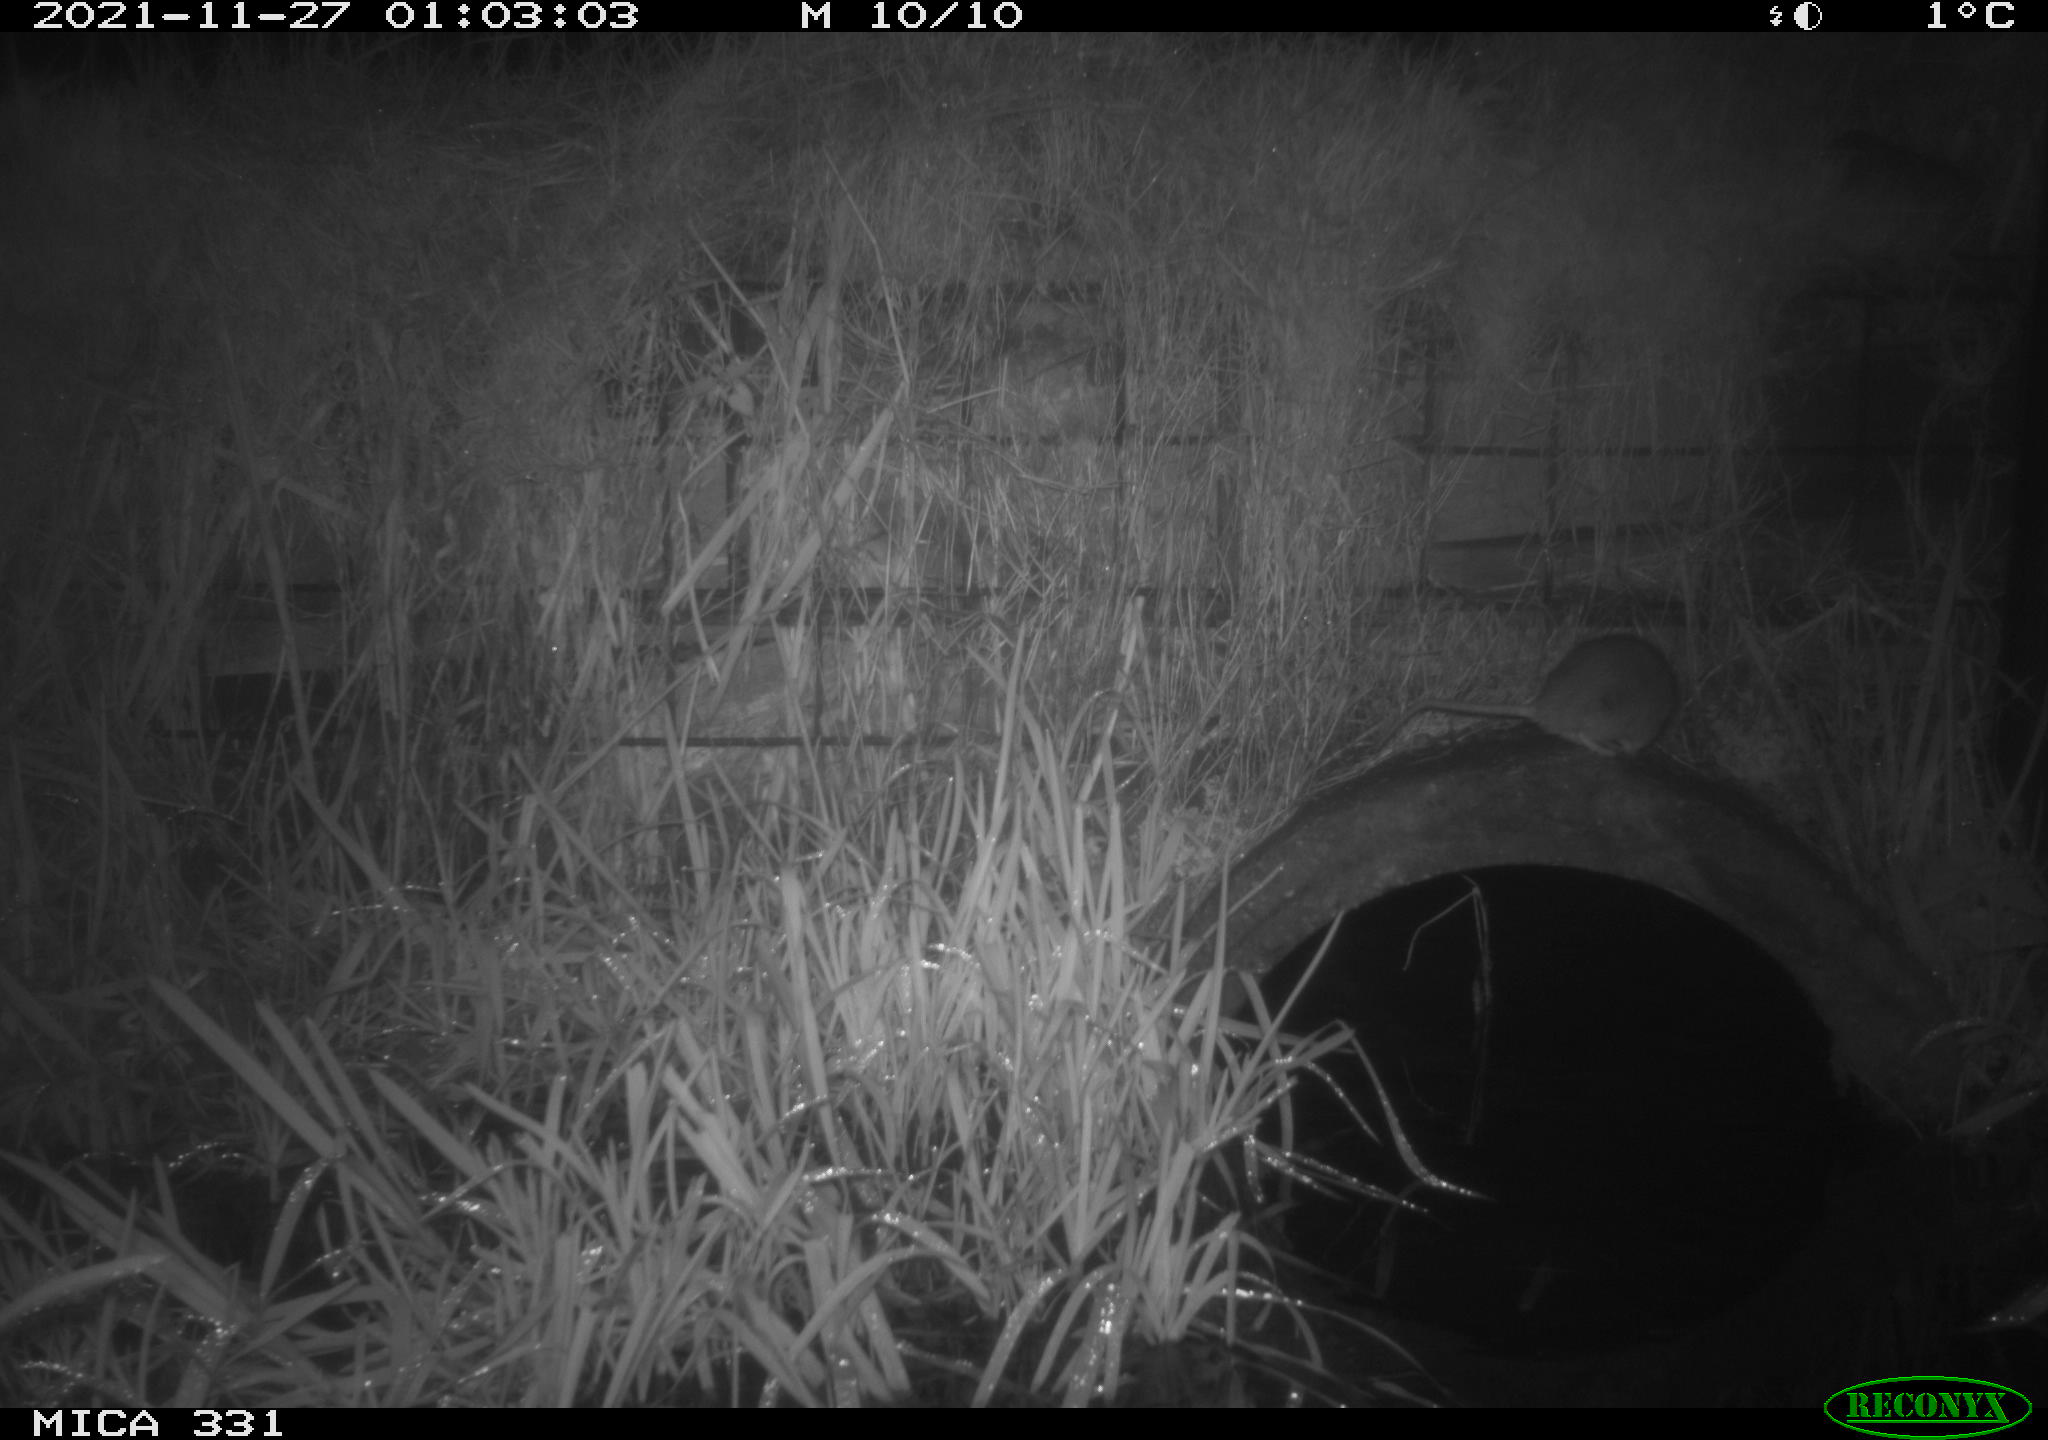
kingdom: Animalia
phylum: Chordata
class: Mammalia
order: Rodentia
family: Muridae
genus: Rattus
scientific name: Rattus norvegicus
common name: Brown rat
